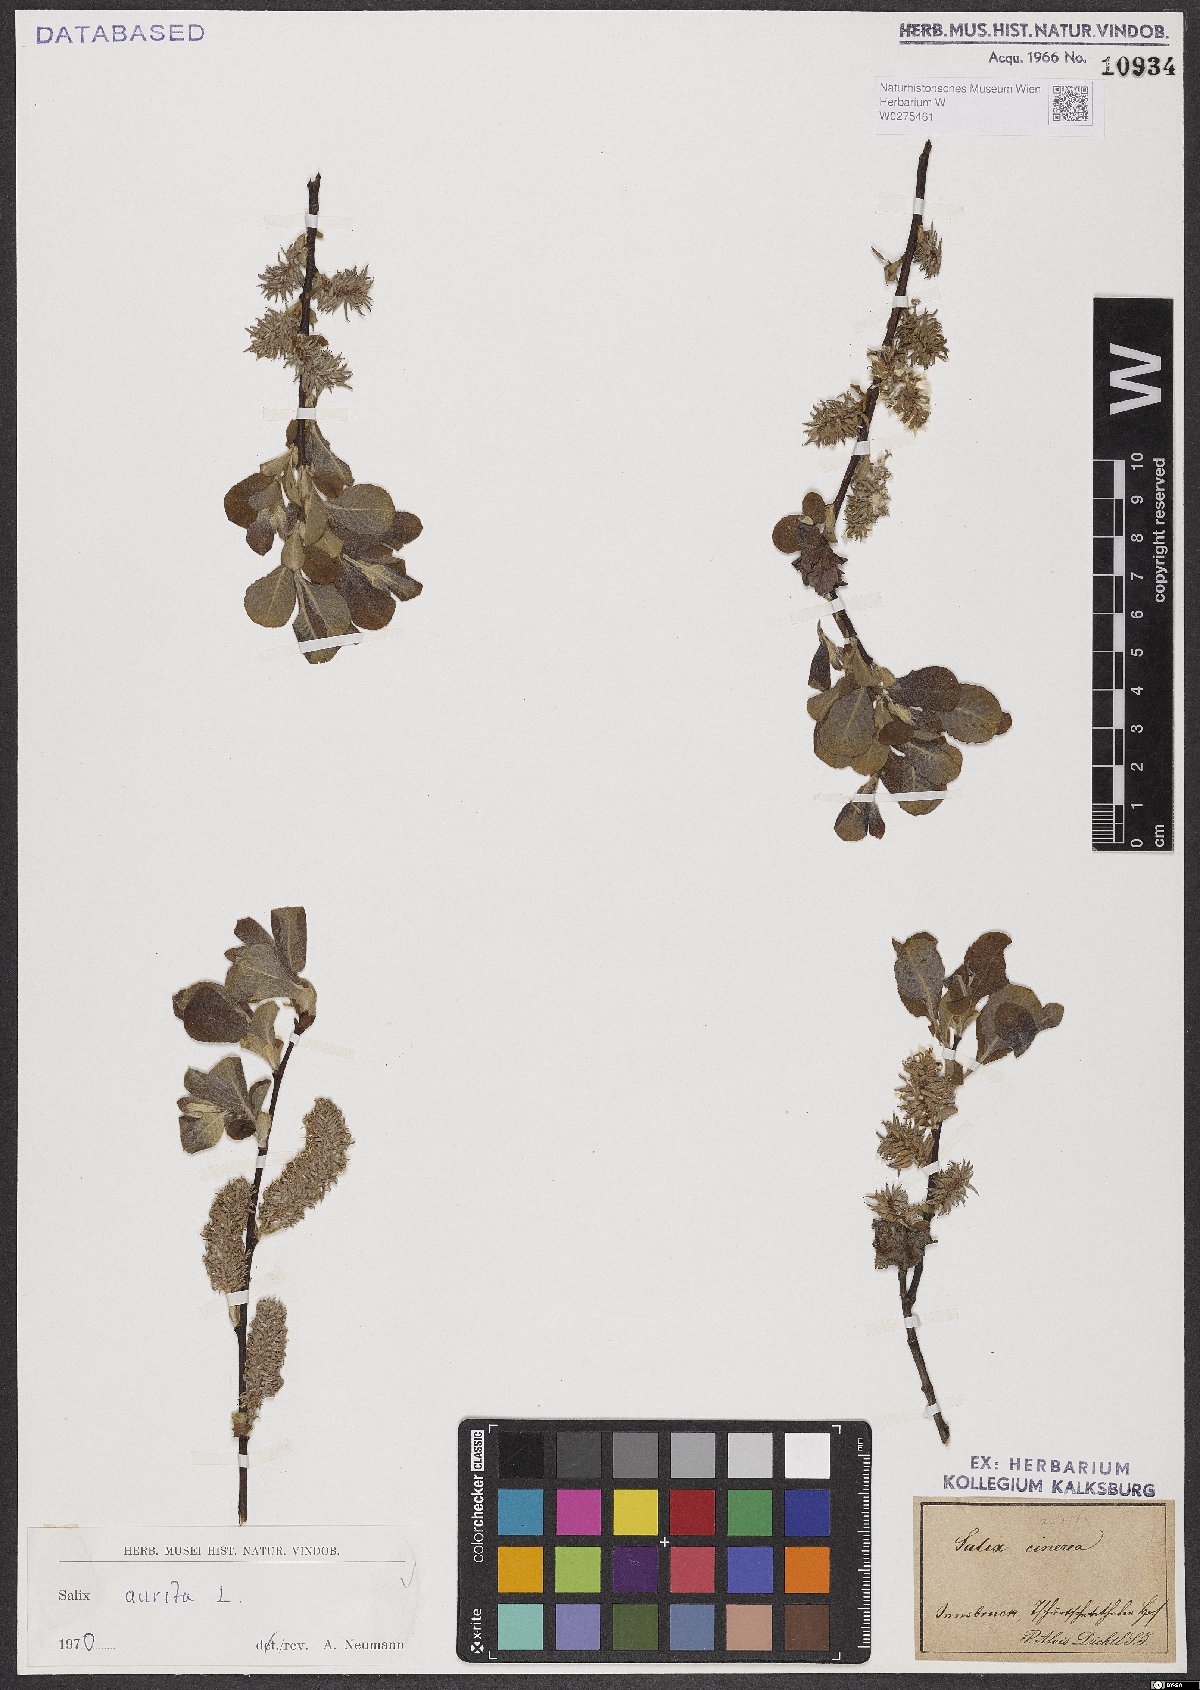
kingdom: Plantae
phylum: Tracheophyta
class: Magnoliopsida
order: Malpighiales
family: Salicaceae
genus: Salix
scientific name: Salix aurita
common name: Eared willow
